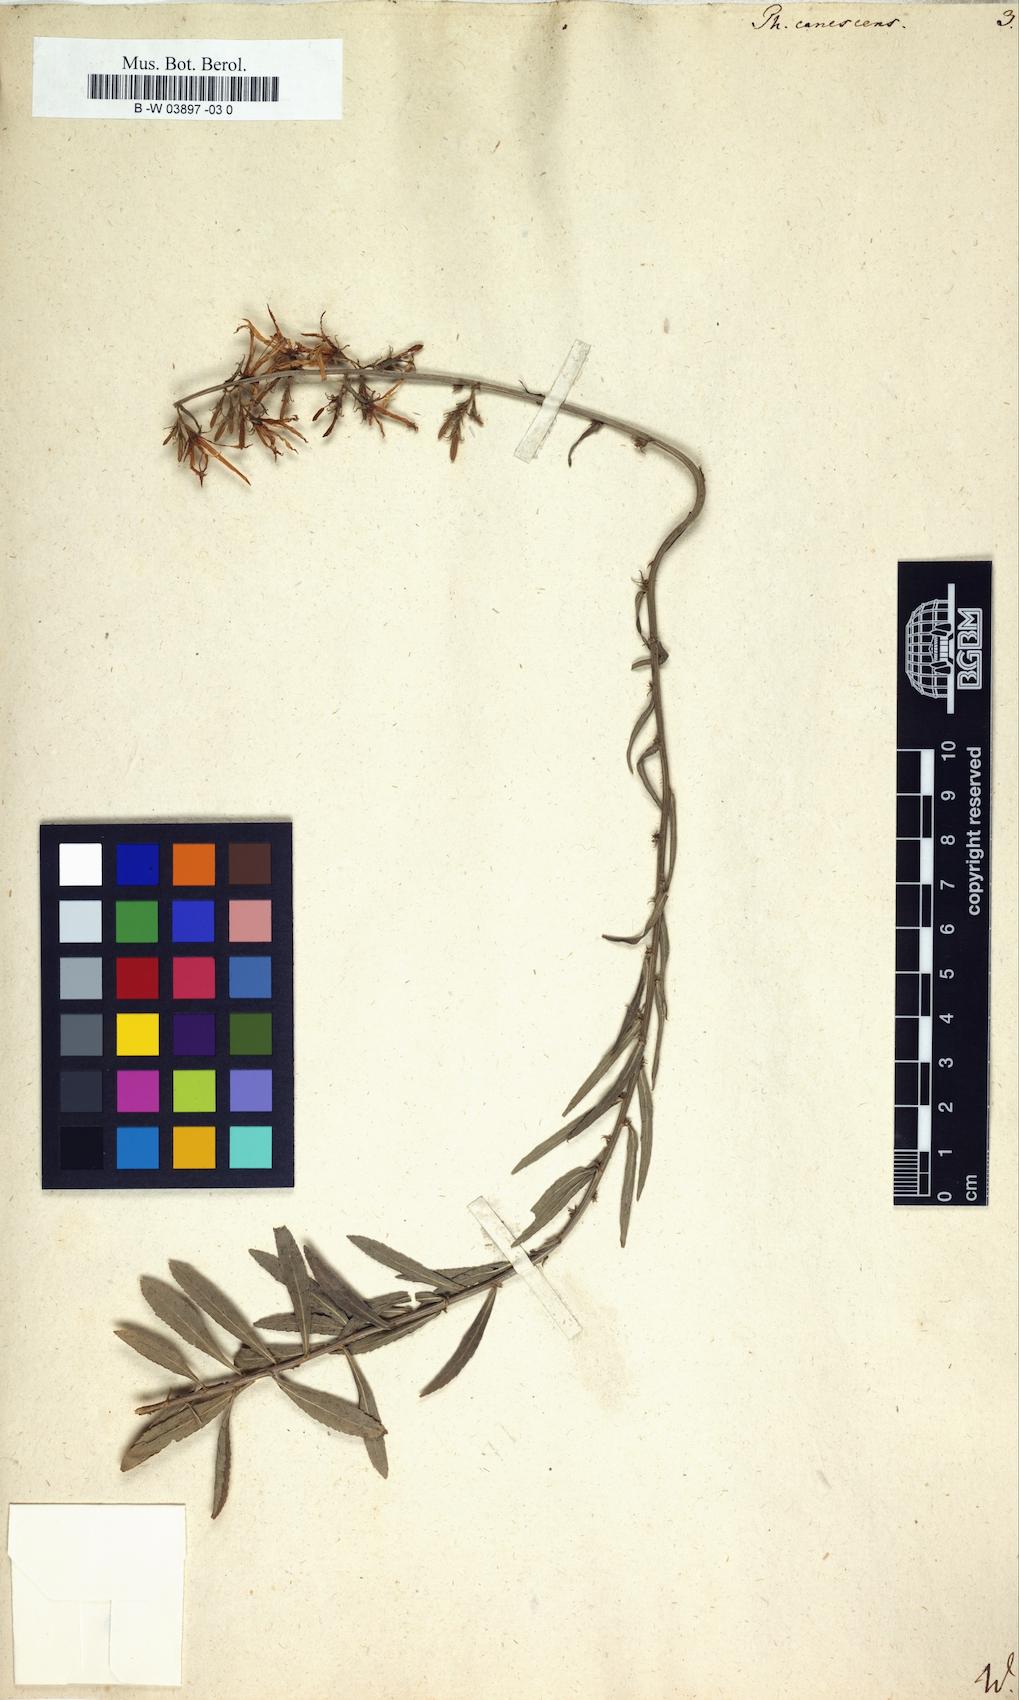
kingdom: Plantae
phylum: Tracheophyta
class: Magnoliopsida
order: Asterales
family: Campanulaceae
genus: Asyneuma
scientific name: Asyneuma canescens
